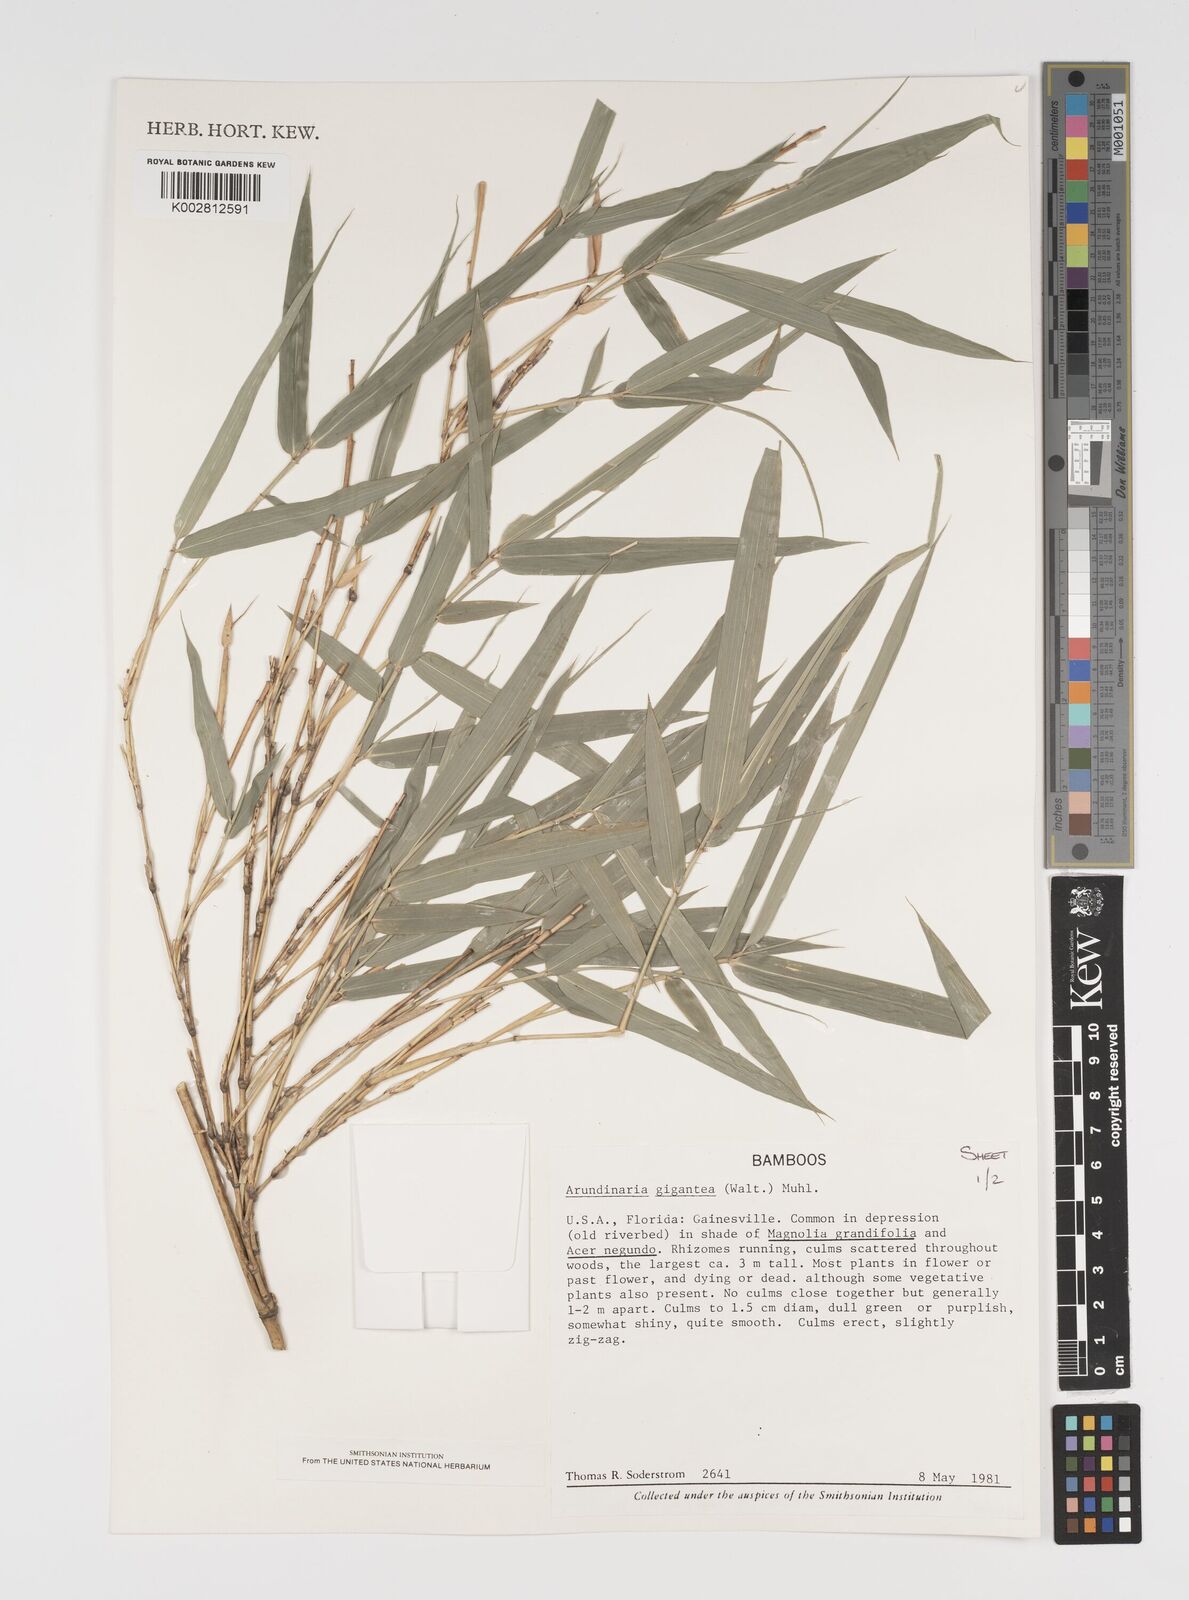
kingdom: Plantae
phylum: Tracheophyta
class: Liliopsida
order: Poales
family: Poaceae
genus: Arundinaria
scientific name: Arundinaria gigantea
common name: Giant cane
